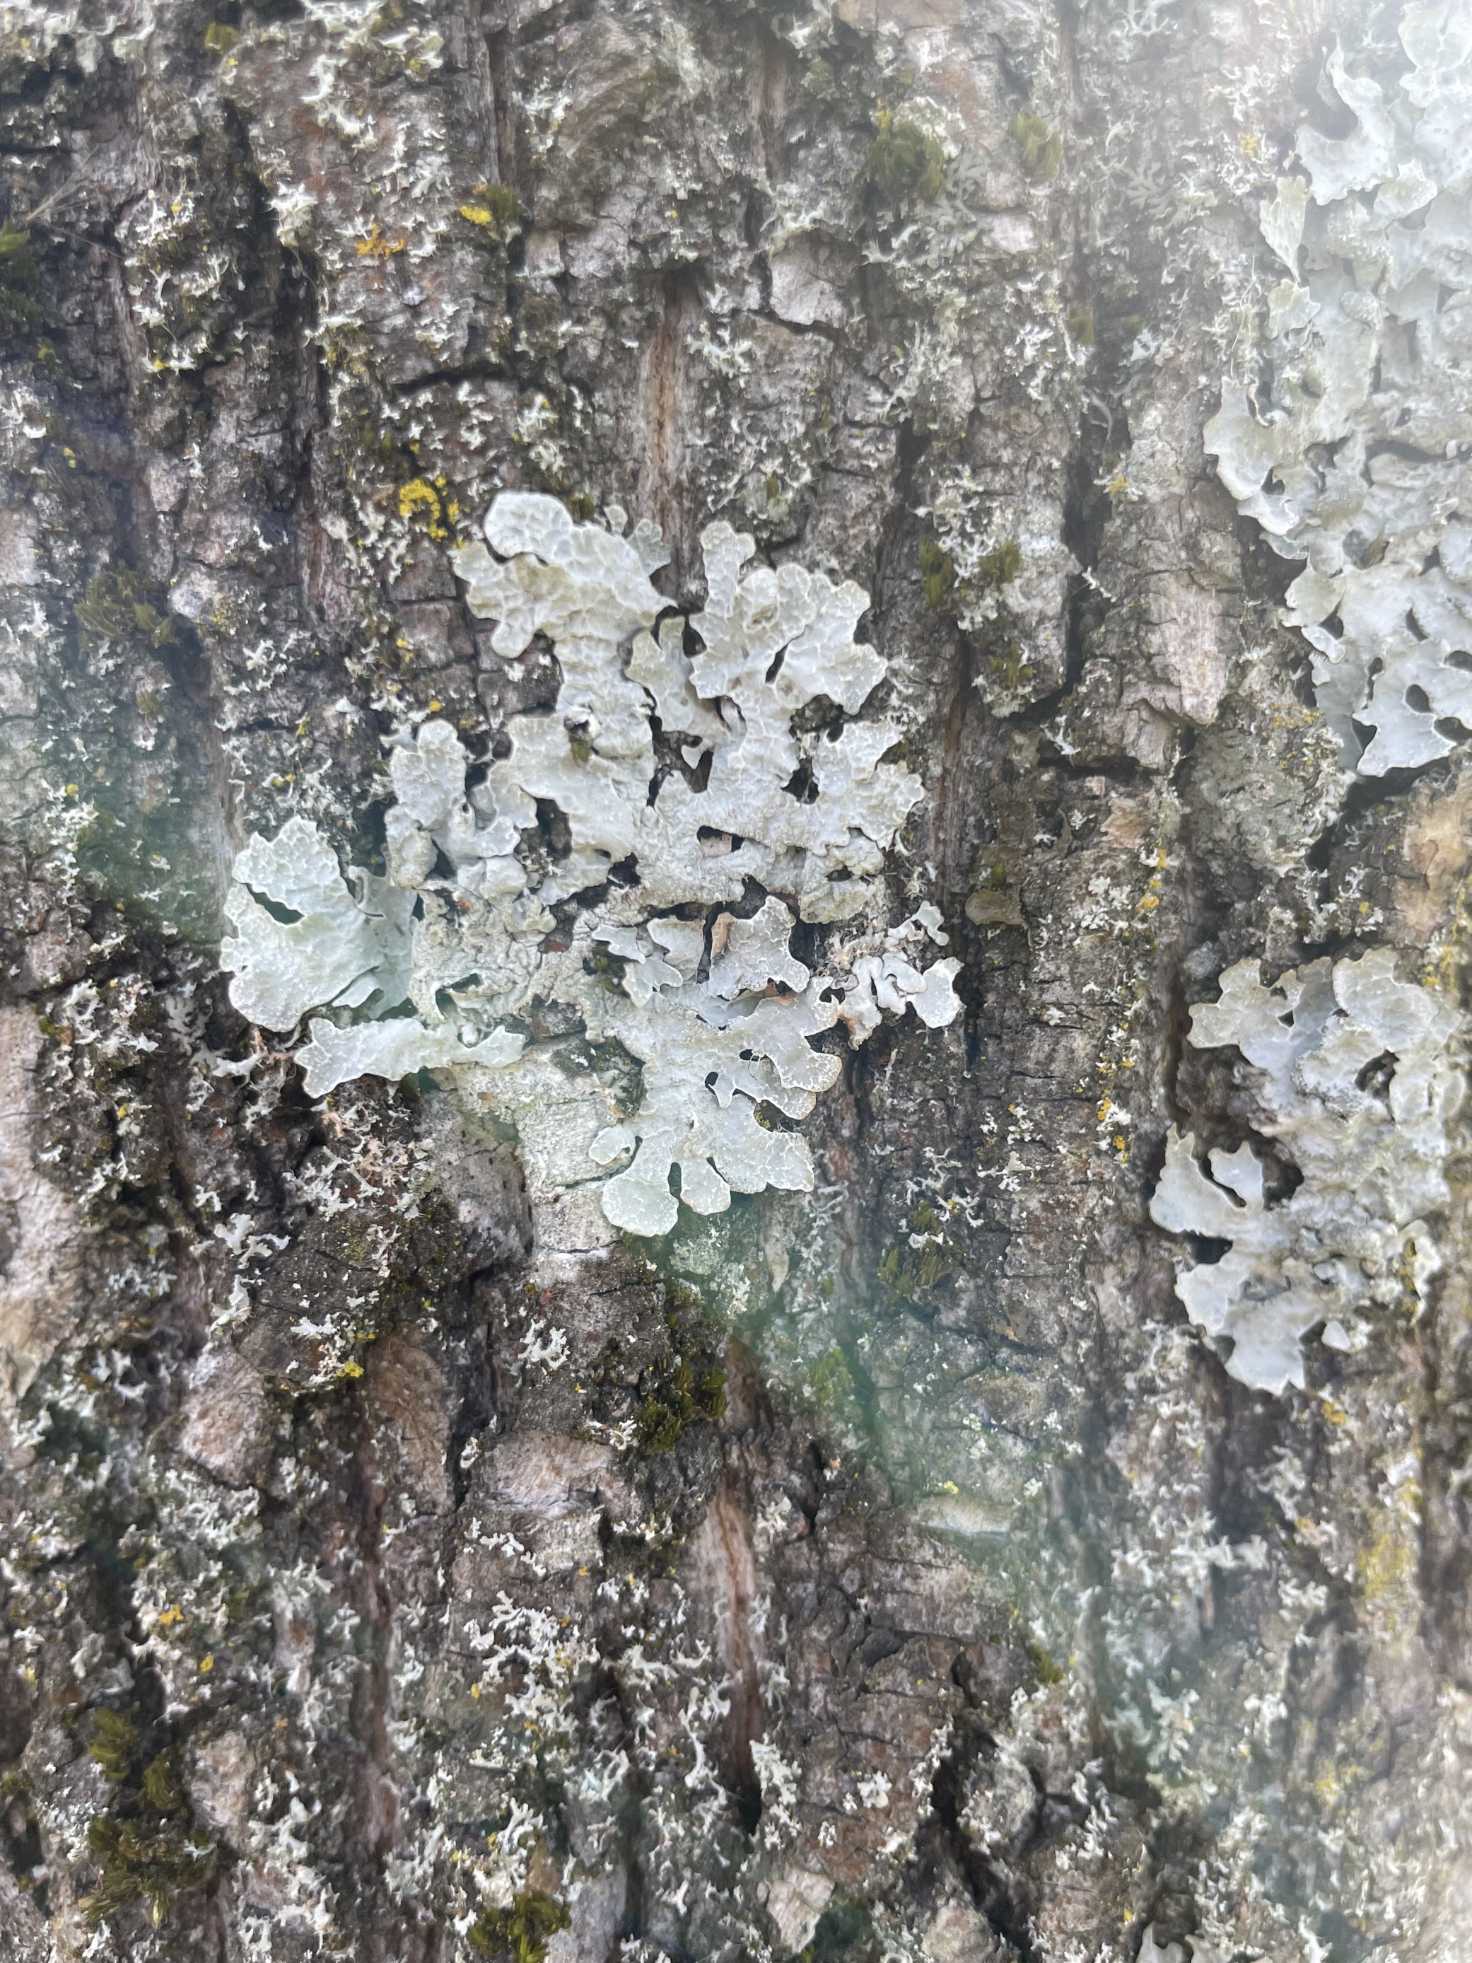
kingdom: Fungi
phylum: Ascomycota
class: Lecanoromycetes
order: Lecanorales
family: Parmeliaceae
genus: Parmelia
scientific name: Parmelia sulcata
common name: Rynket skållav
